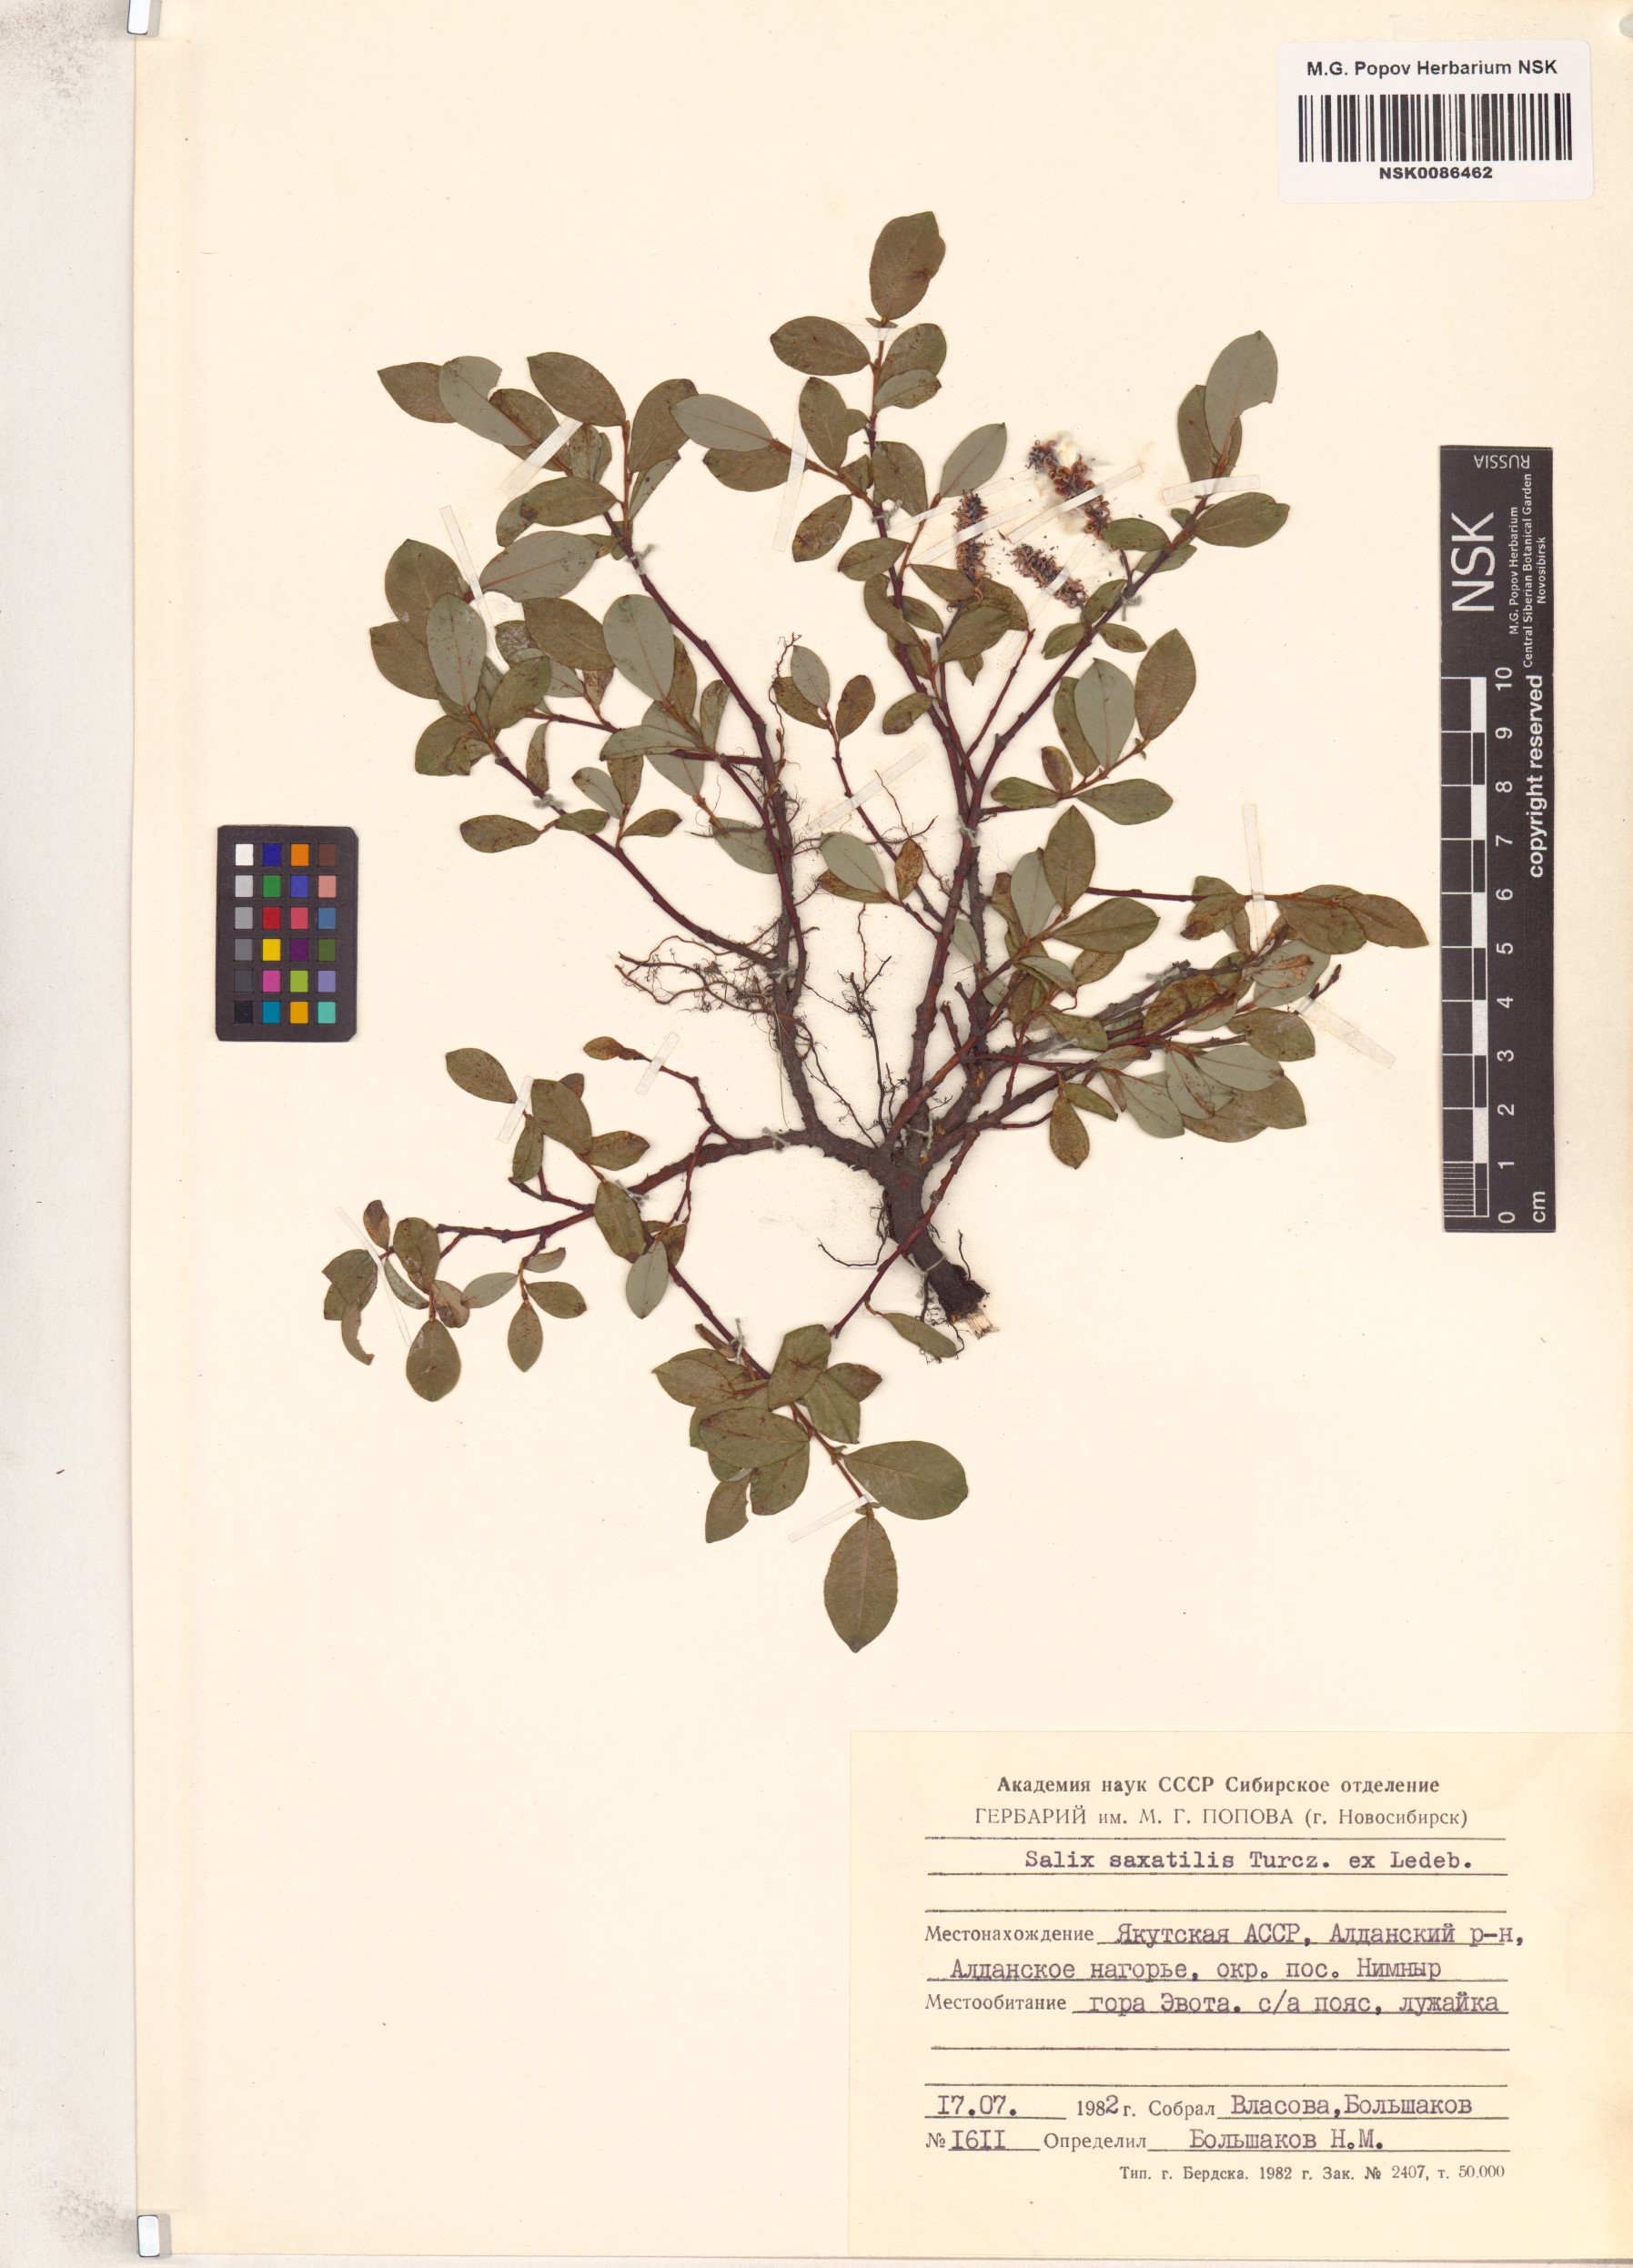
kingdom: Plantae
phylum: Tracheophyta
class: Magnoliopsida
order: Malpighiales
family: Salicaceae
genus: Salix
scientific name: Salix saxatilis
